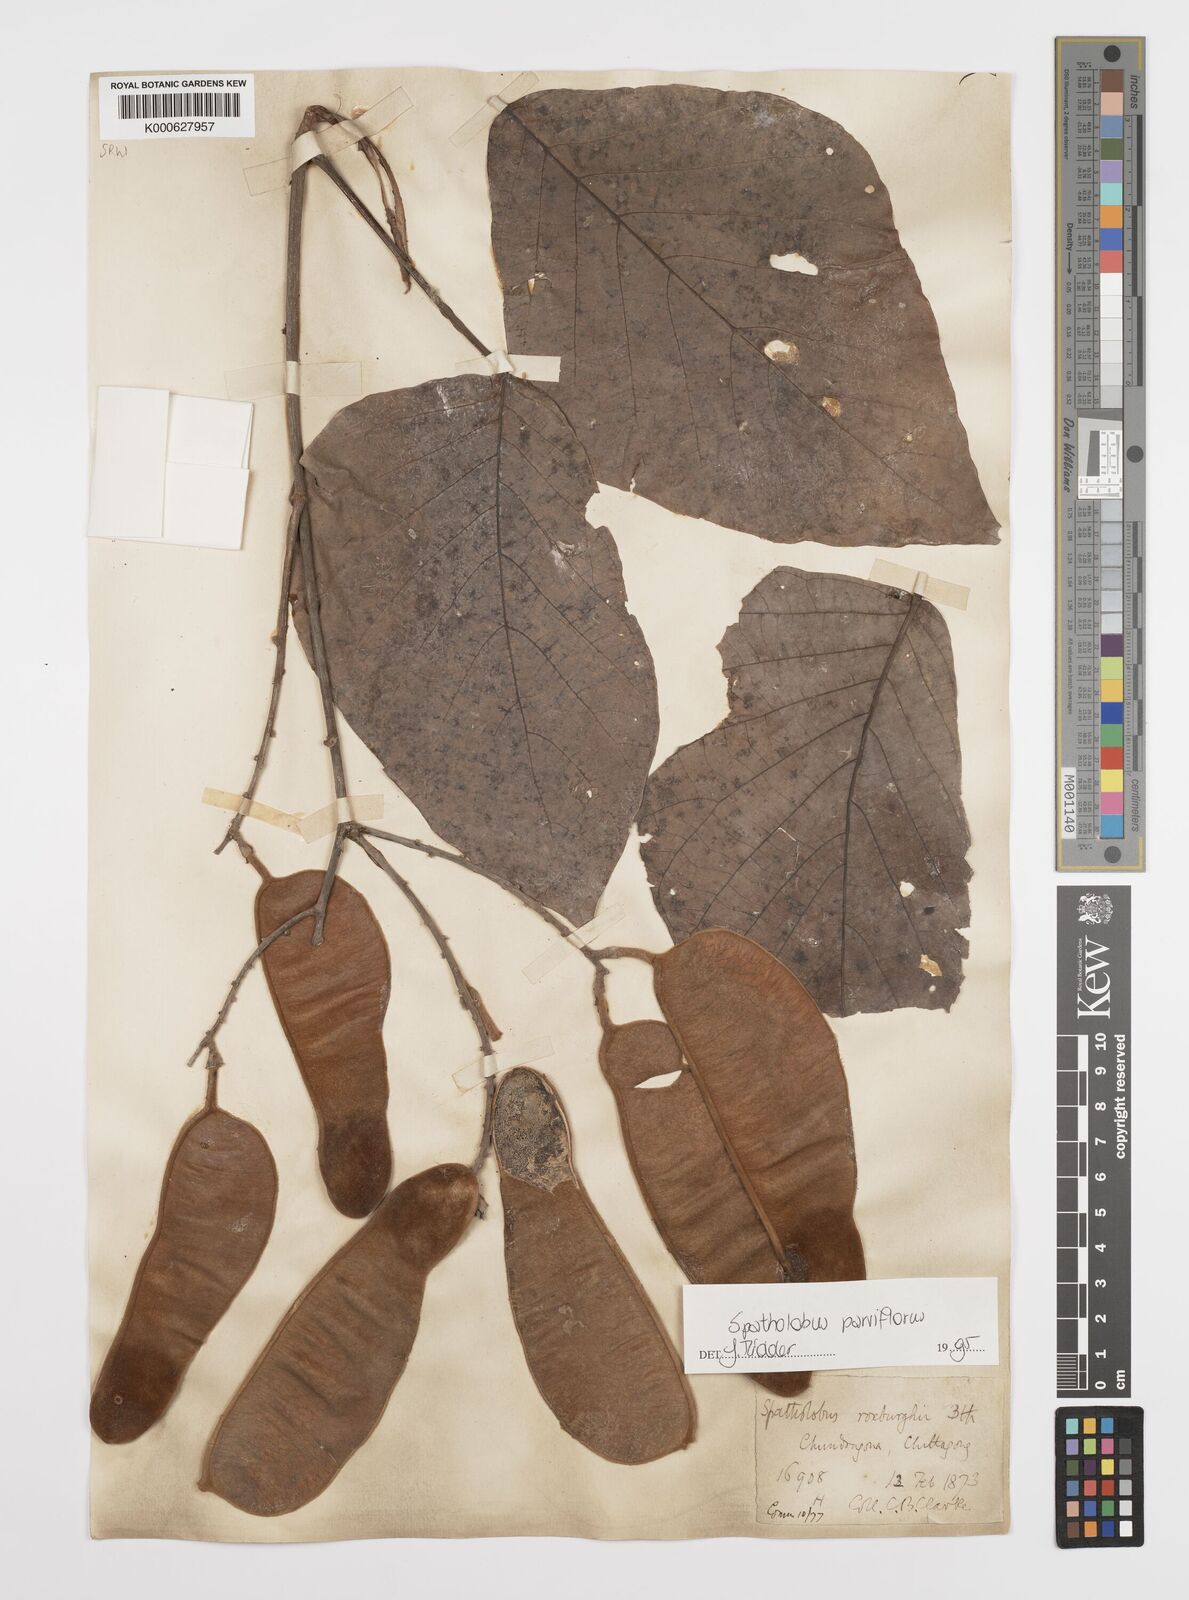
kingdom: Plantae
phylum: Tracheophyta
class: Magnoliopsida
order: Fabales
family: Fabaceae
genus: Spatholobus
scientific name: Spatholobus parviflorus
